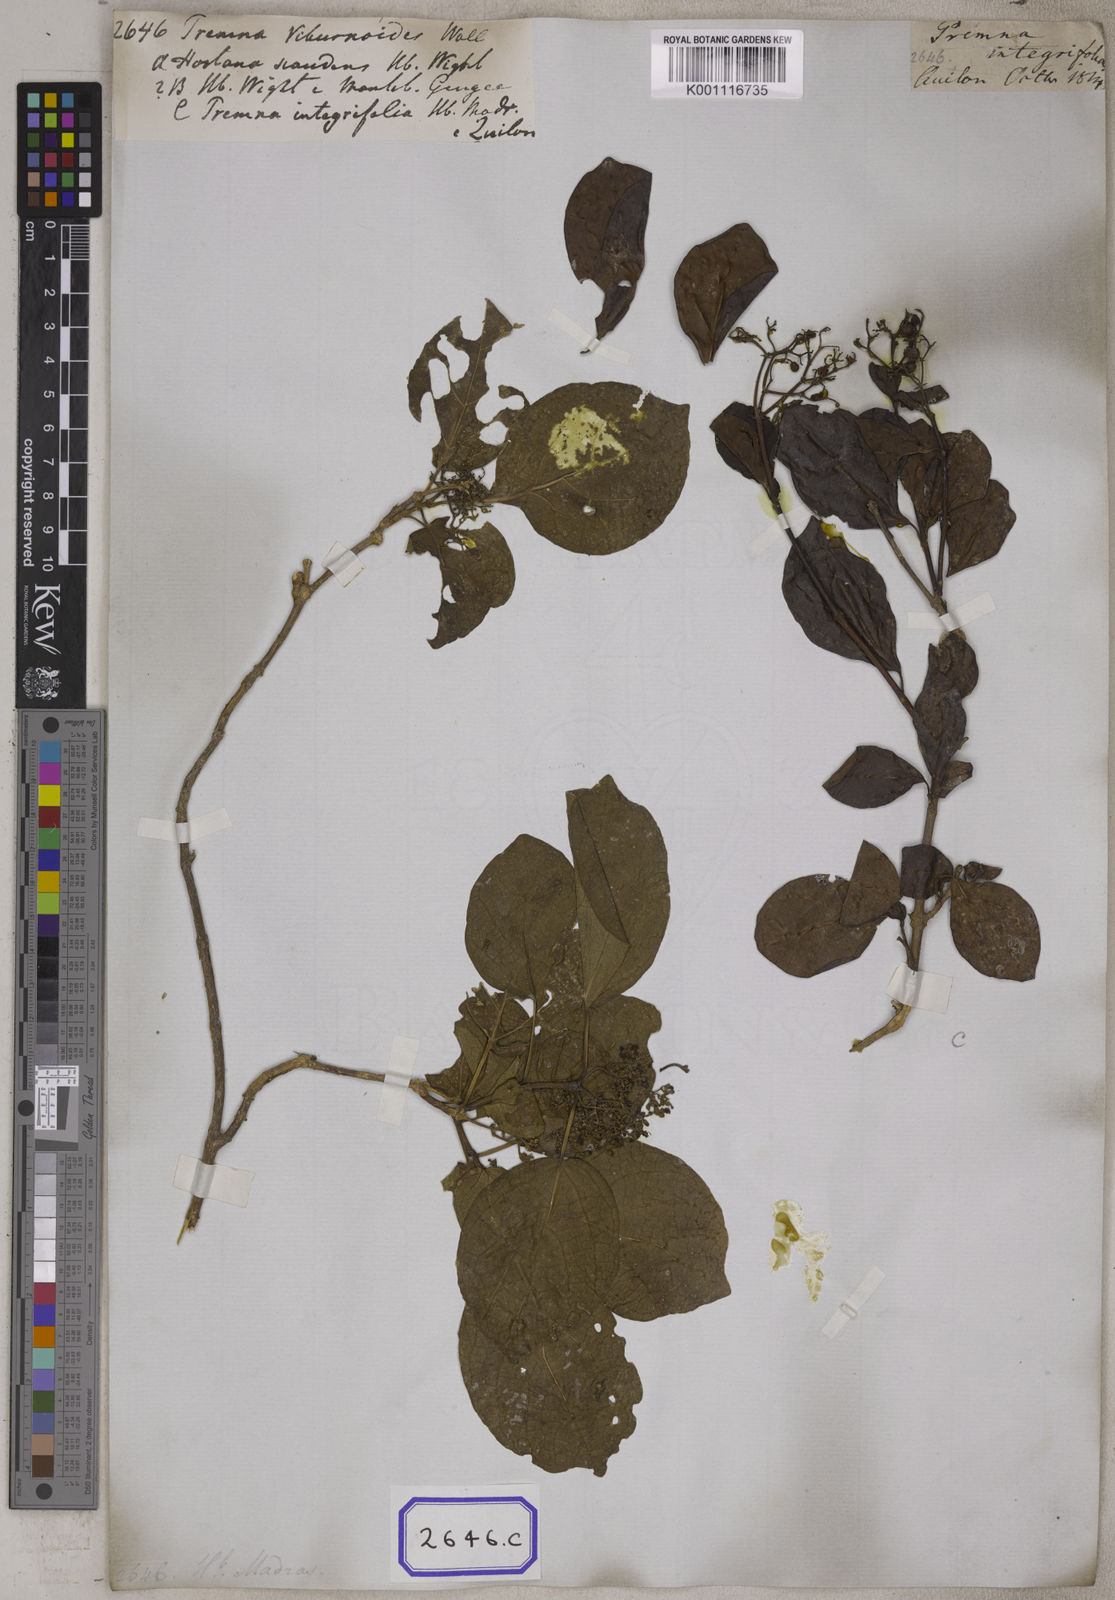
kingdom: Plantae
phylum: Tracheophyta
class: Magnoliopsida
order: Lamiales
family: Lamiaceae
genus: Premna
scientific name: Premna
